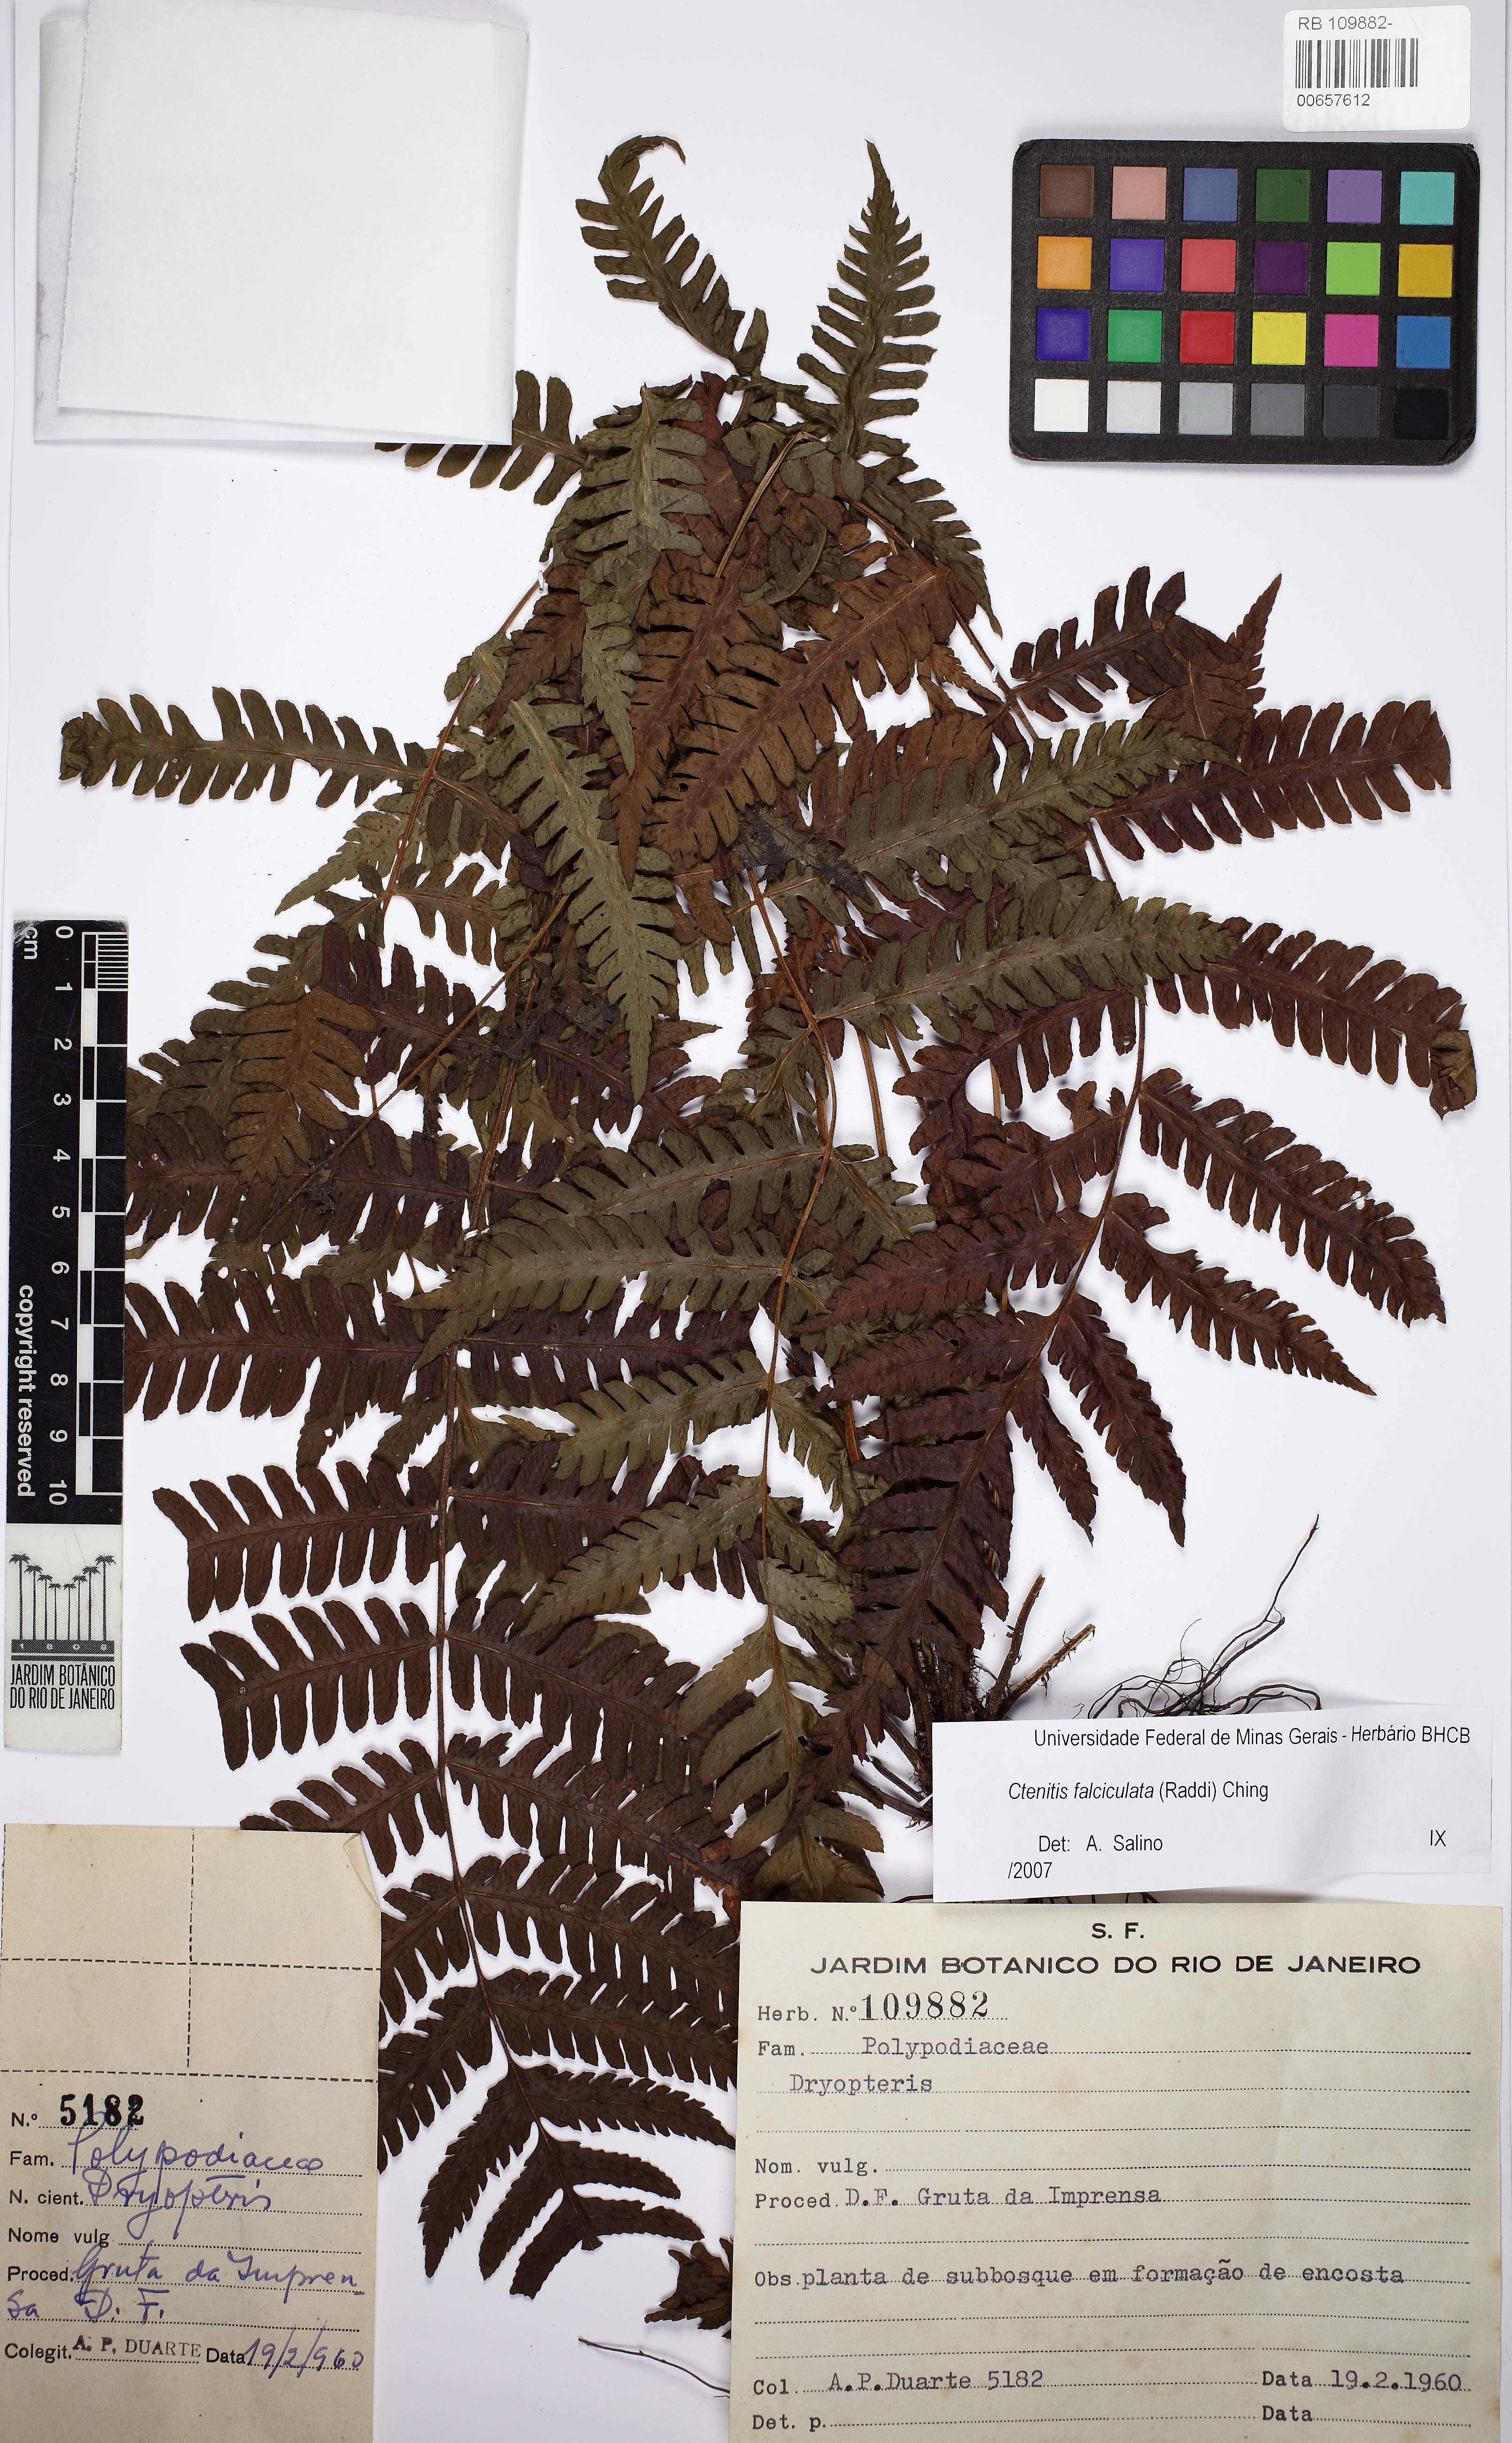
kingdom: Plantae
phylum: Tracheophyta
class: Polypodiopsida
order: Polypodiales
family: Dryopteridaceae
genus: Ctenitis
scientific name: Ctenitis
